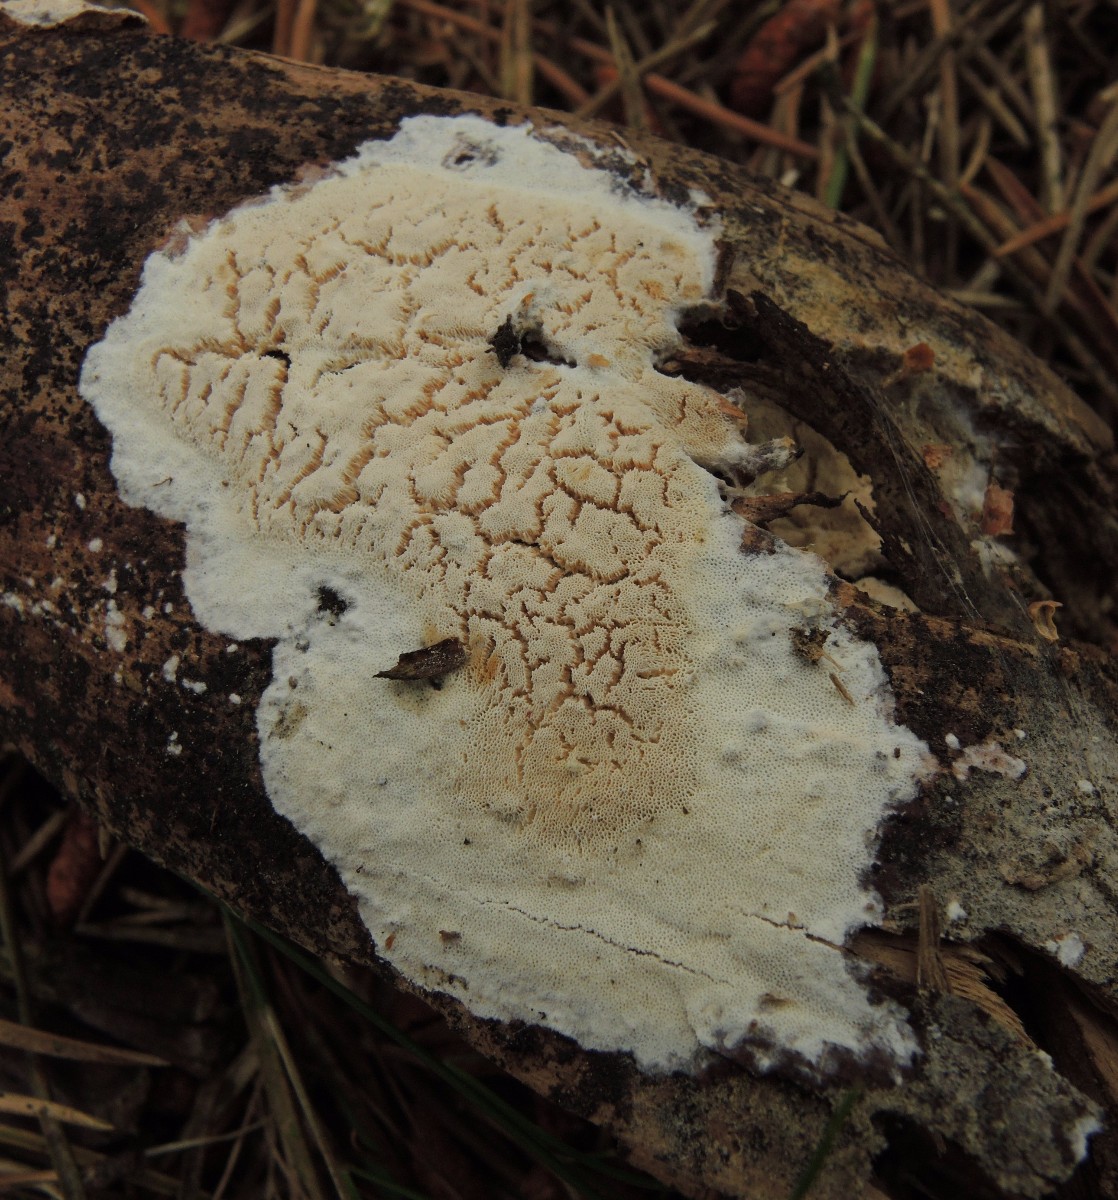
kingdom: Fungi
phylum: Basidiomycota
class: Agaricomycetes
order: Polyporales
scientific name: Polyporales
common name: poresvampordenen
